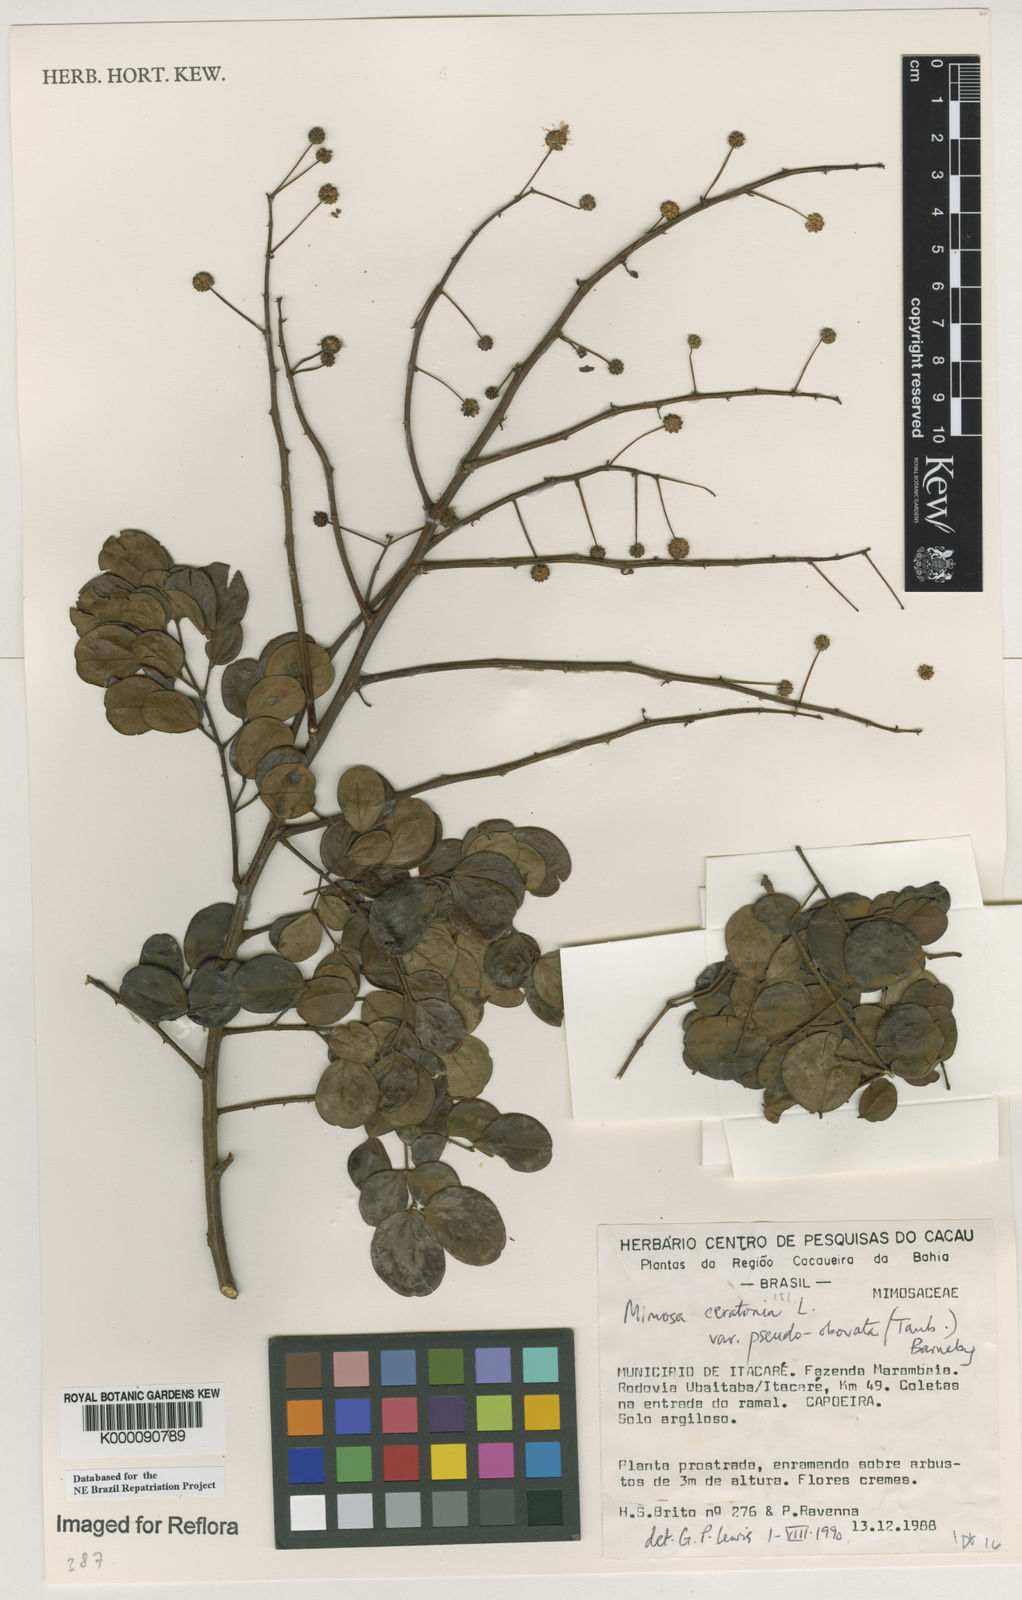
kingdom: Plantae
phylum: Tracheophyta
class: Magnoliopsida
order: Fabales
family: Fabaceae
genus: Mimosa
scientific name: Mimosa ceratonia
